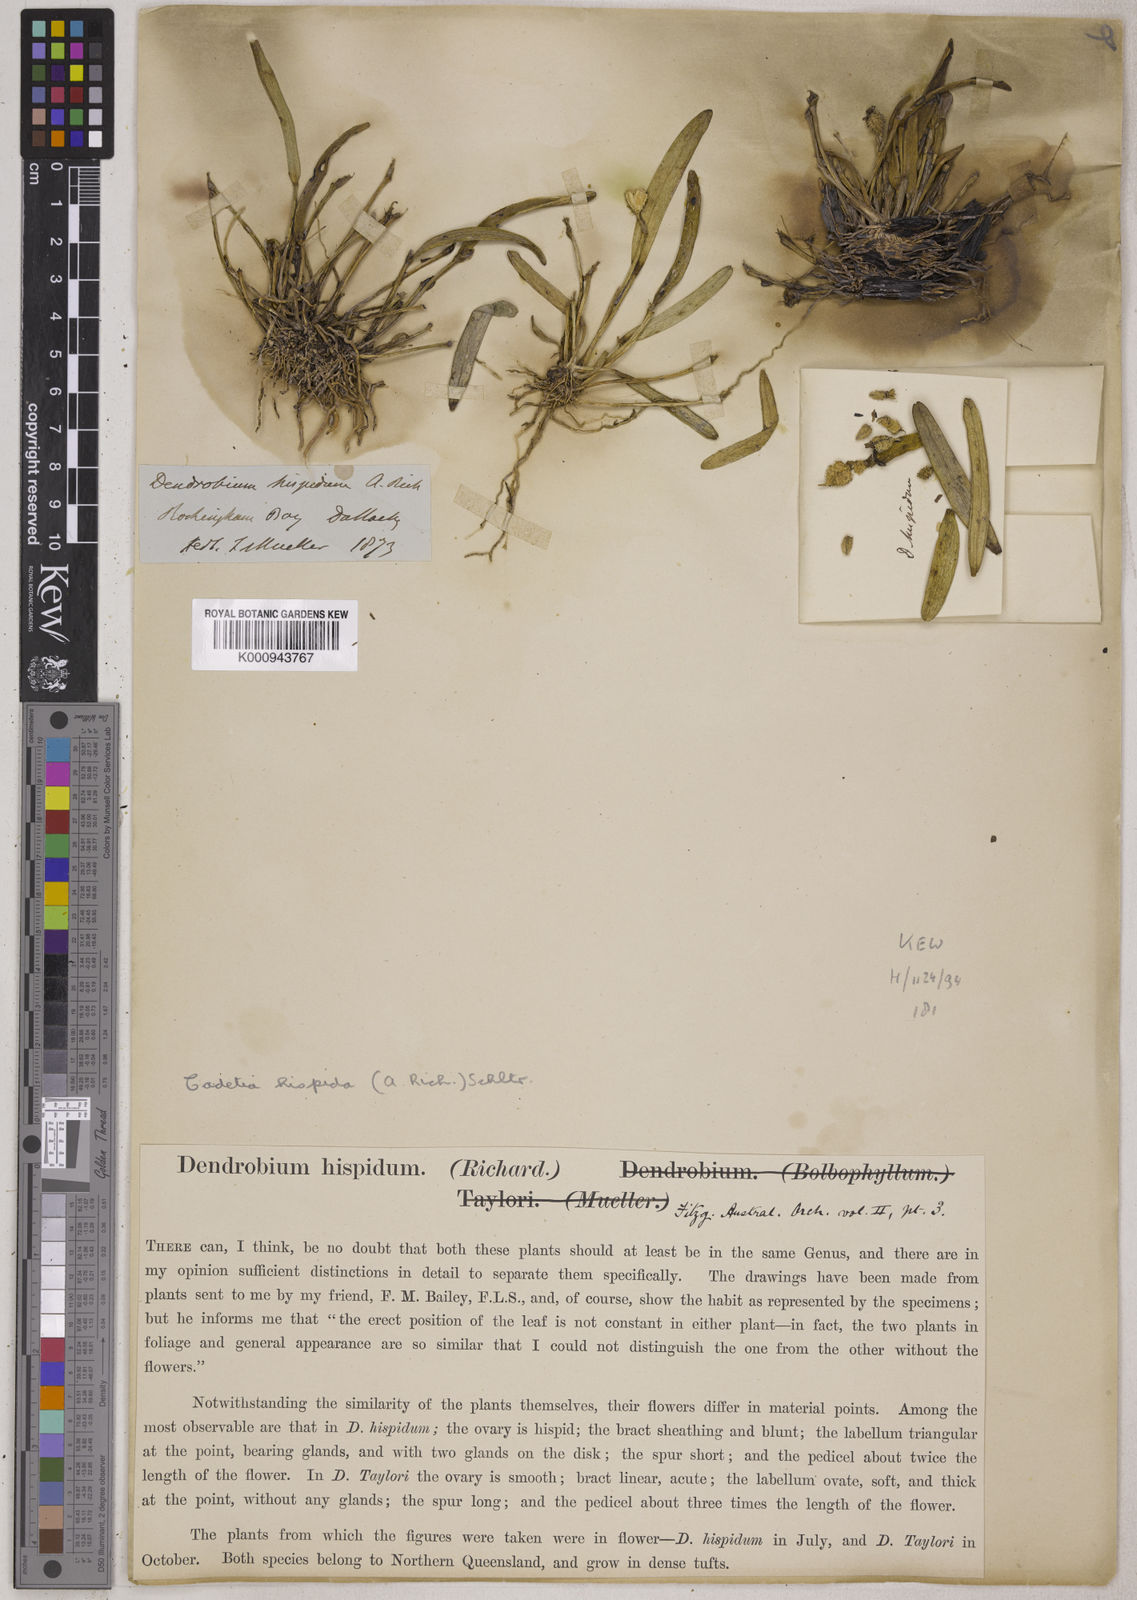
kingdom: Plantae
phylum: Tracheophyta
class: Liliopsida
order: Asparagales
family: Orchidaceae
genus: Dendrobium
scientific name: Dendrobium maidenianum
